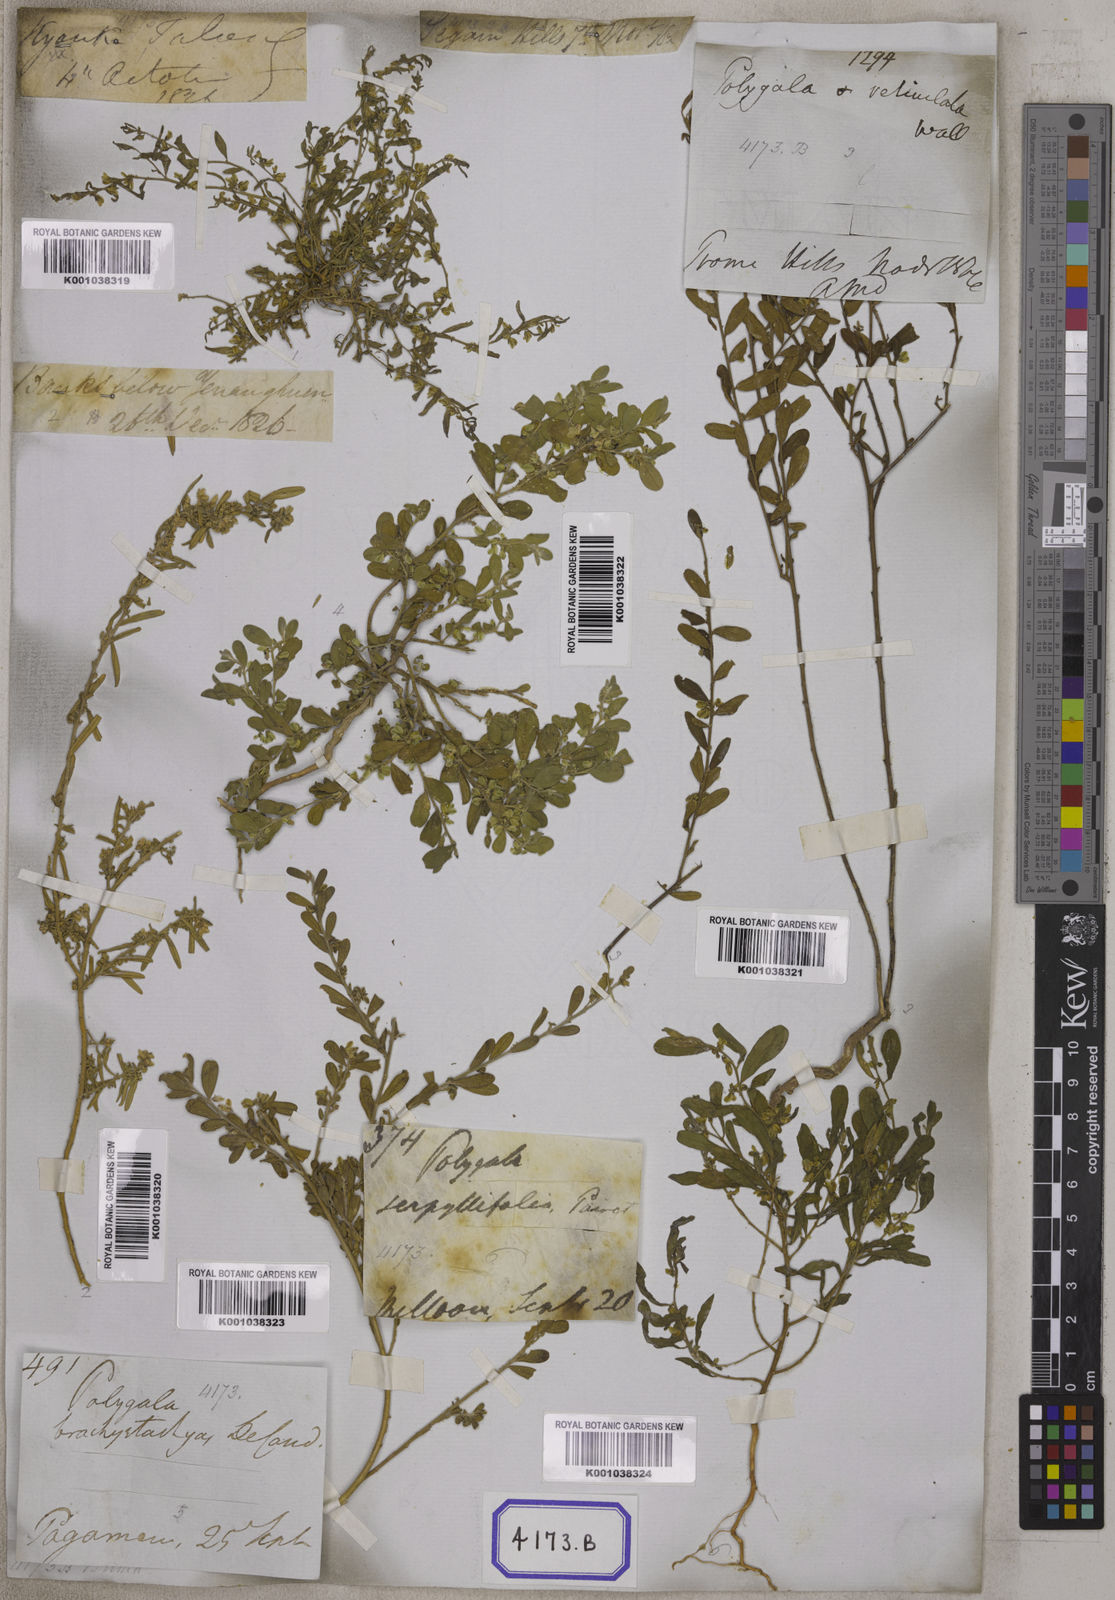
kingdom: Plantae
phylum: Tracheophyta
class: Magnoliopsida
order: Fabales
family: Polygalaceae
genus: Polygala
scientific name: Polygala
